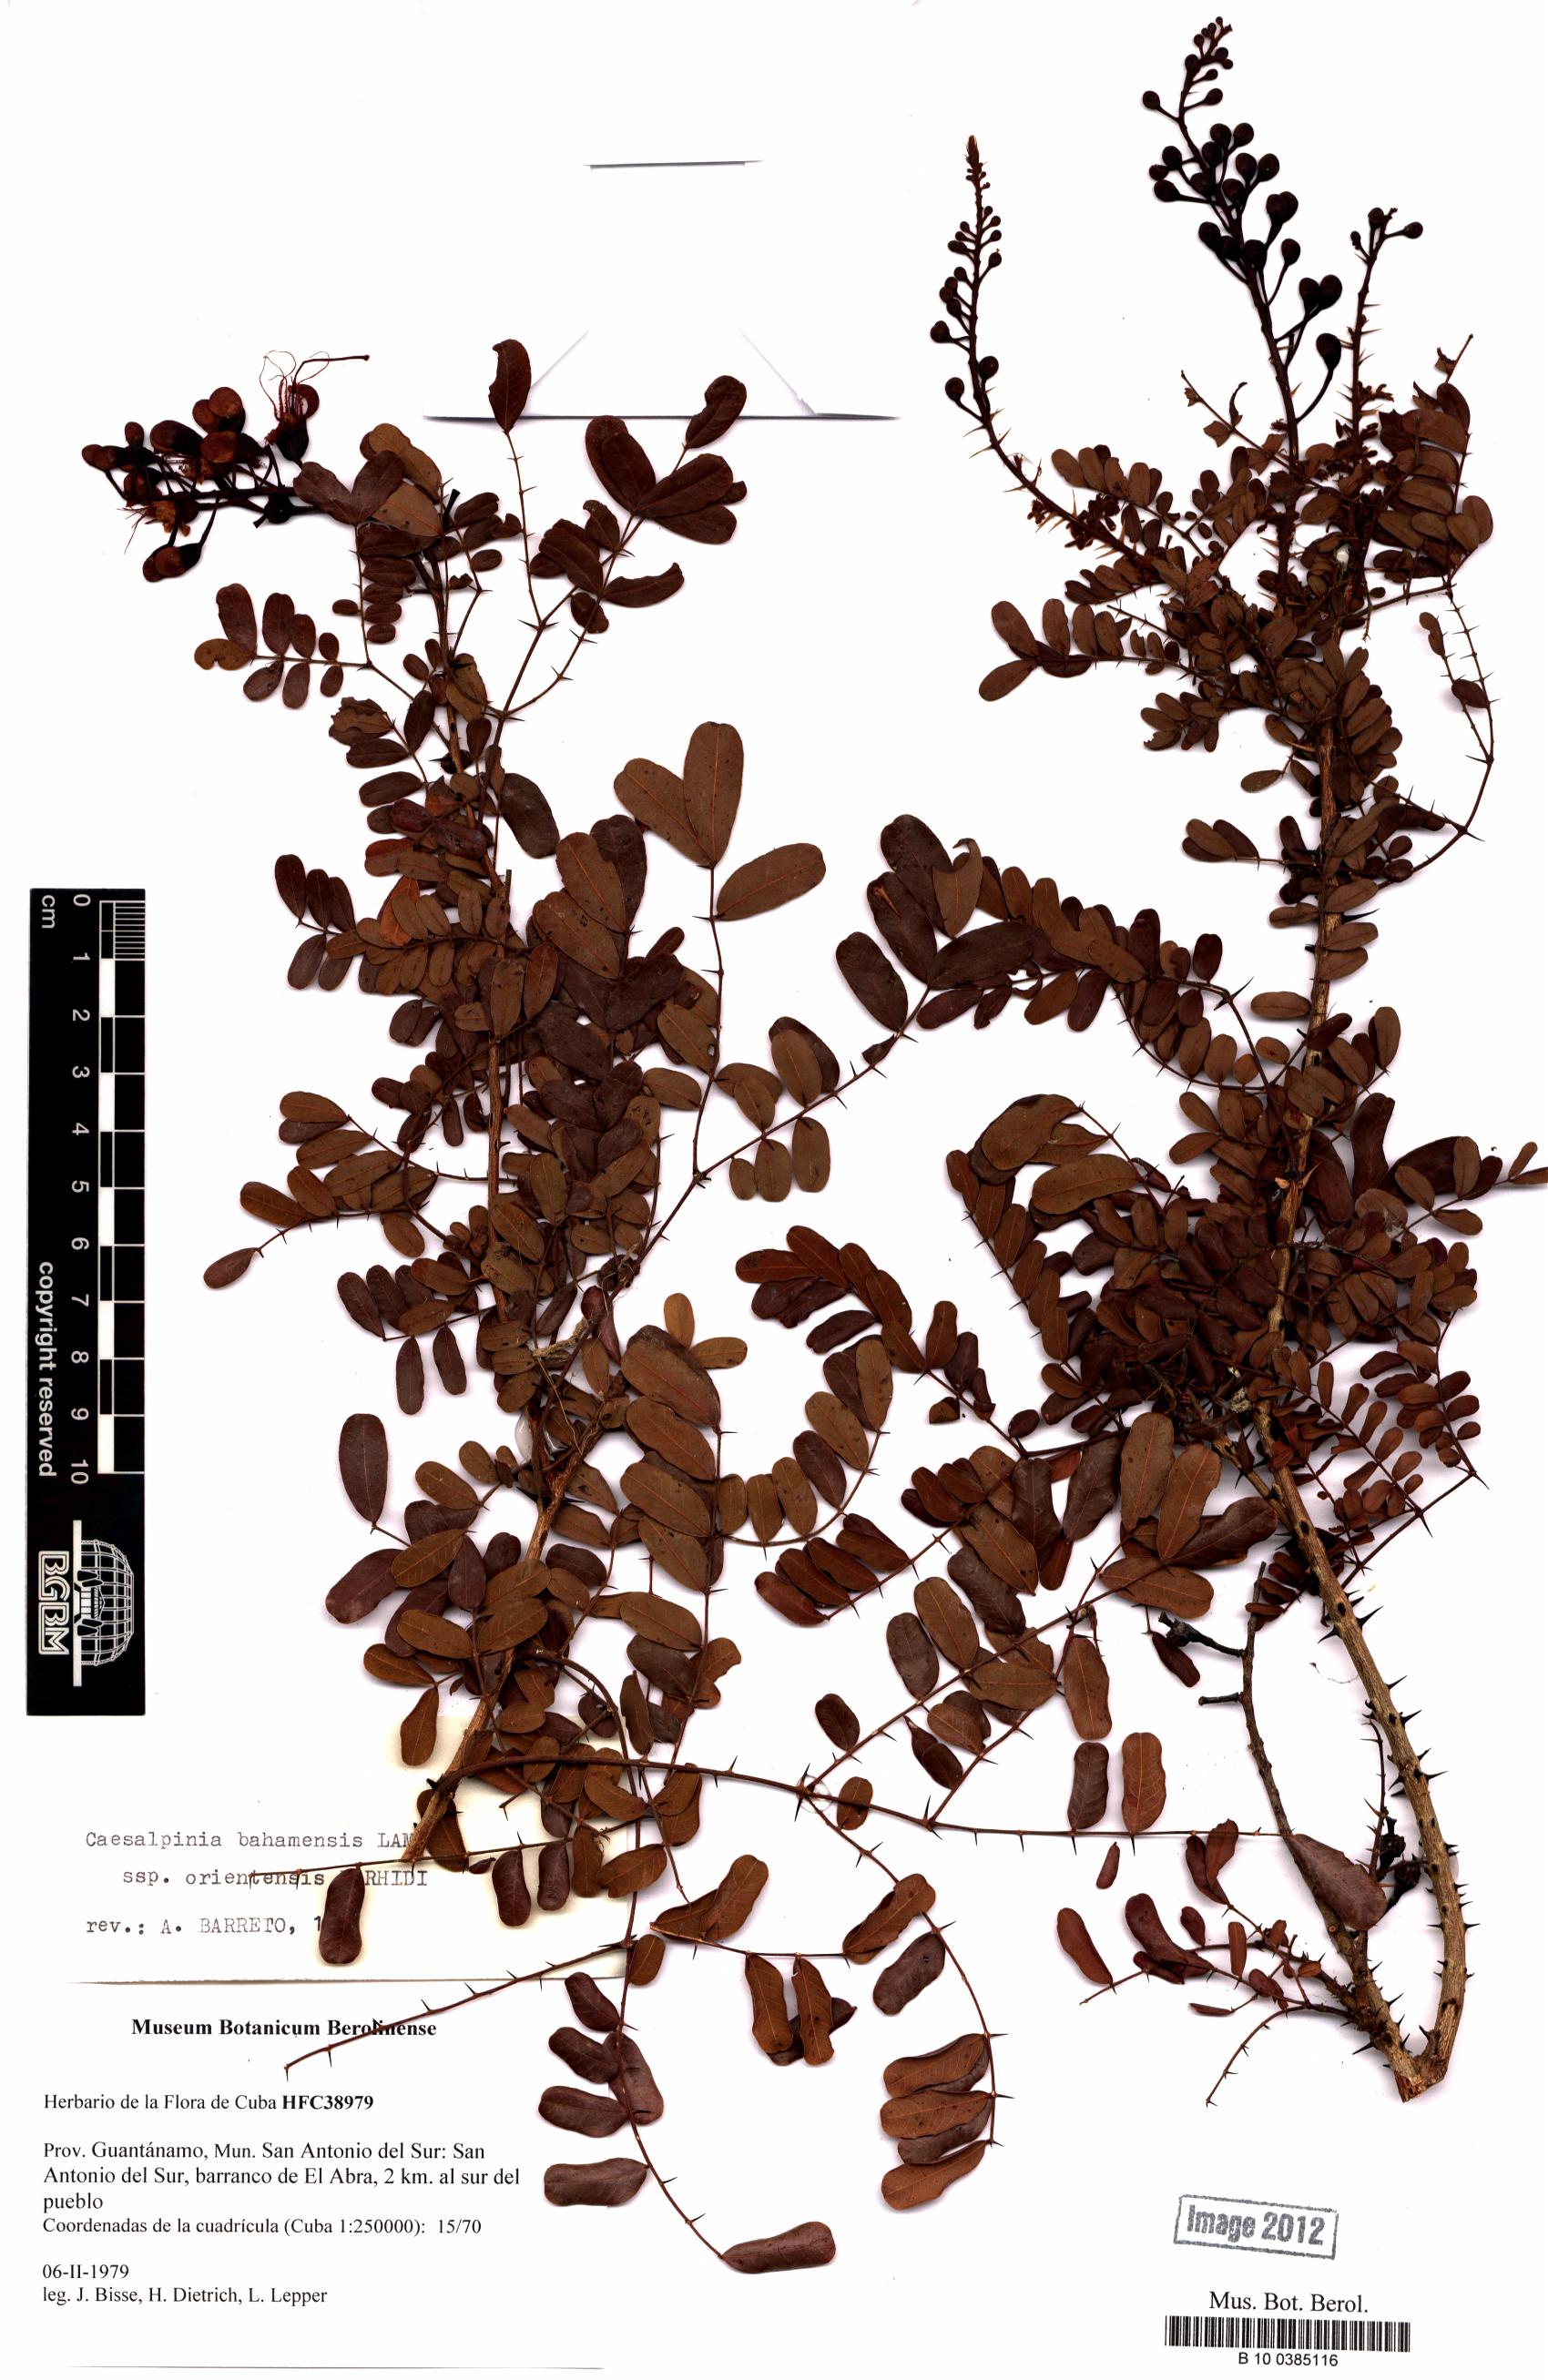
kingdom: Plantae
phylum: Tracheophyta
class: Magnoliopsida
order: Fabales
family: Fabaceae
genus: Caesalpinia
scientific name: Caesalpinia bahamensis
